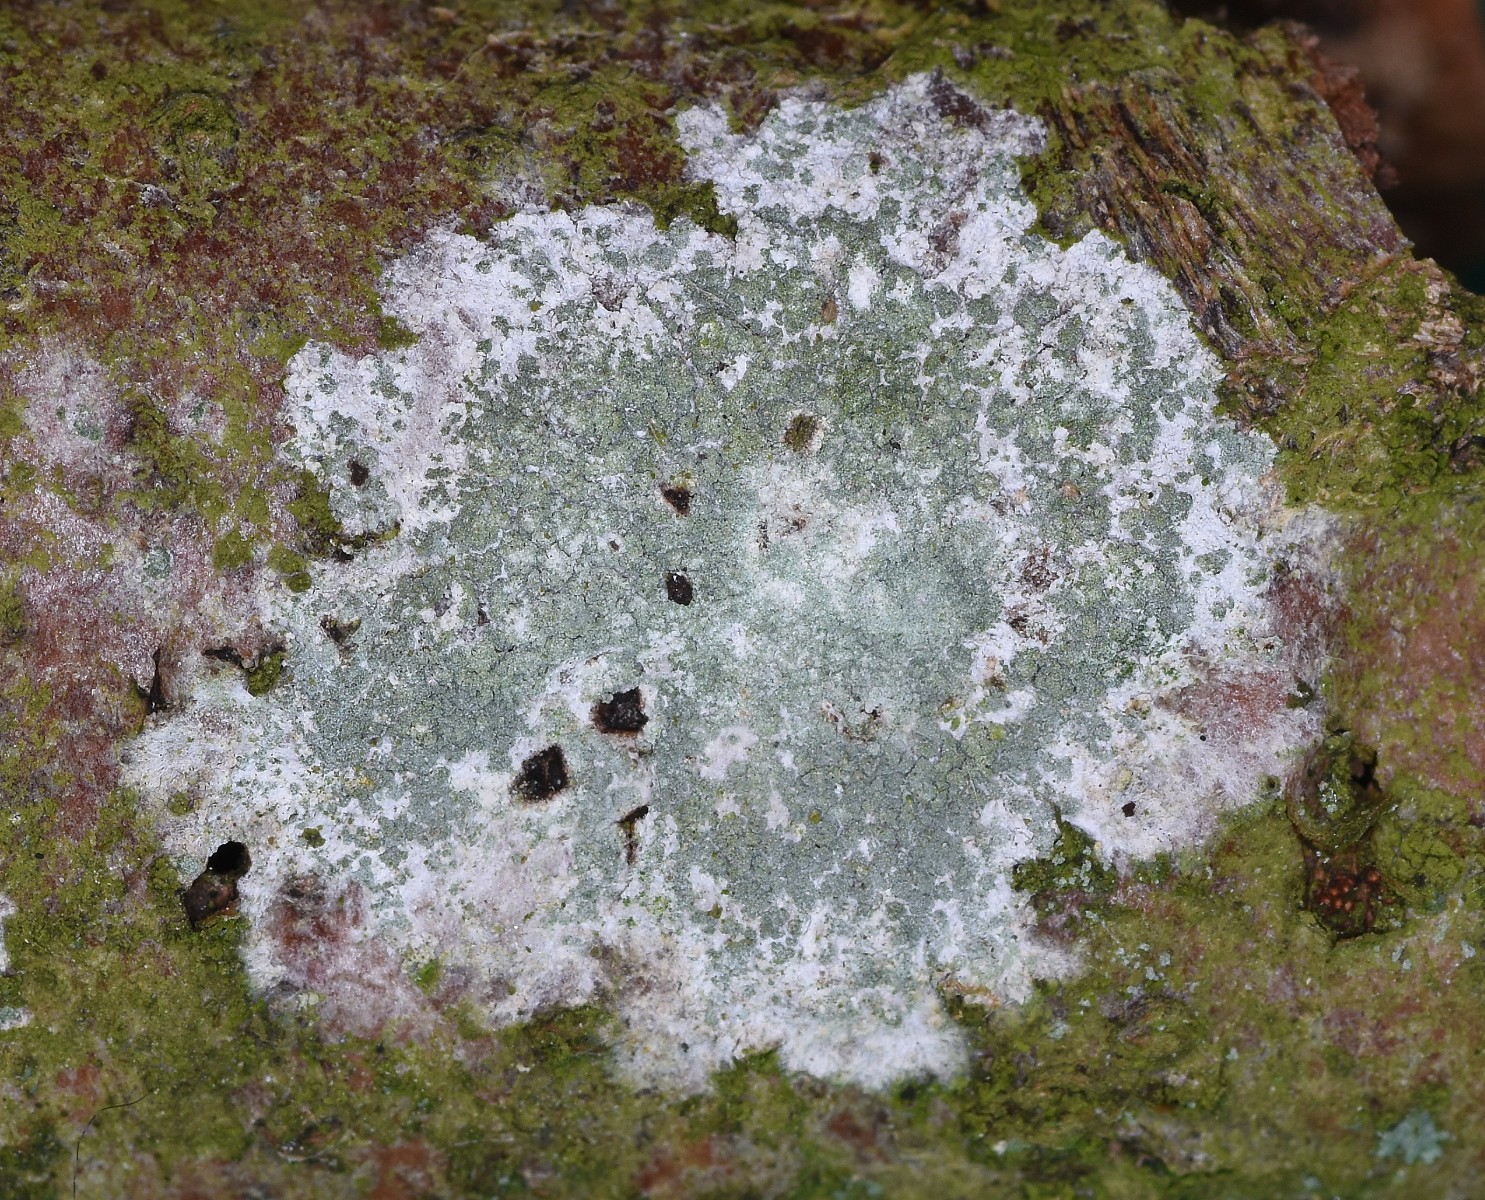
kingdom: Fungi
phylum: Ascomycota
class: Lecanoromycetes
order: Caliciales
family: Caliciaceae
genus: Buellia
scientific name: Buellia griseovirens
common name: grågrøn sortskivelav
